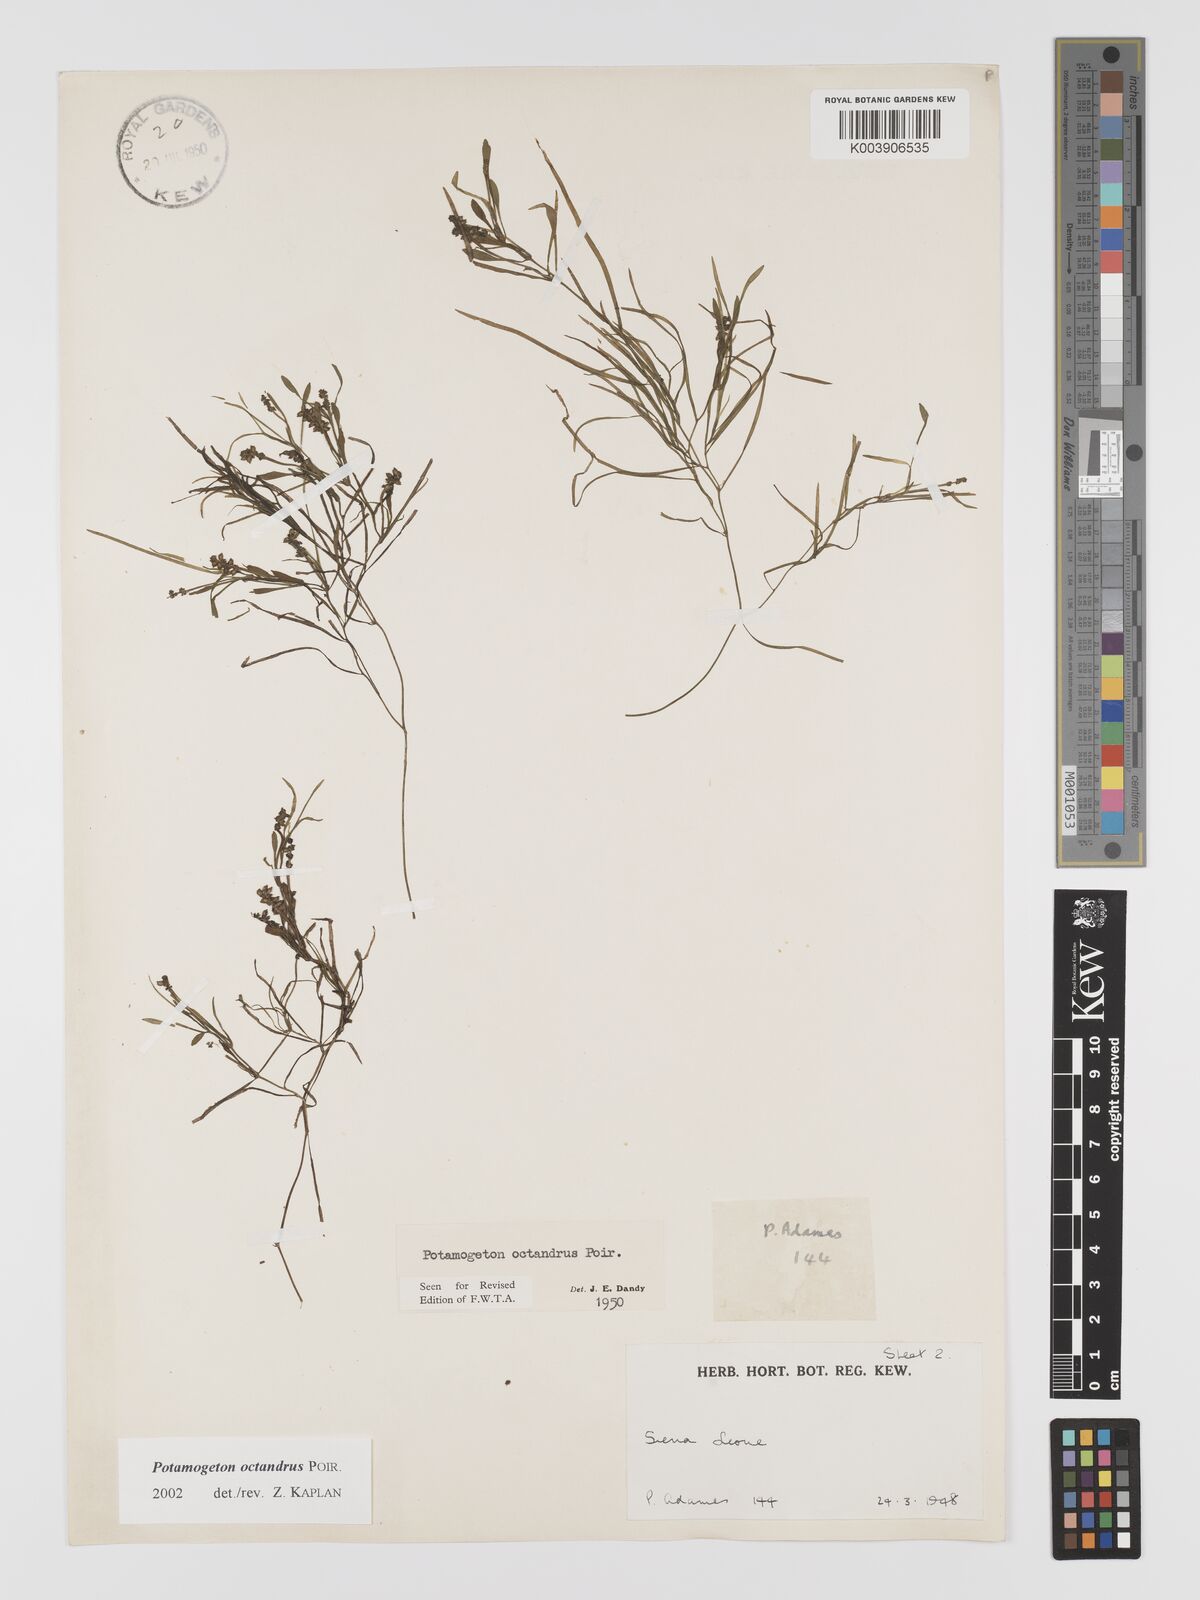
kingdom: Plantae
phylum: Tracheophyta
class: Liliopsida
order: Alismatales
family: Potamogetonaceae
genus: Potamogeton
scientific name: Potamogeton octandrus
